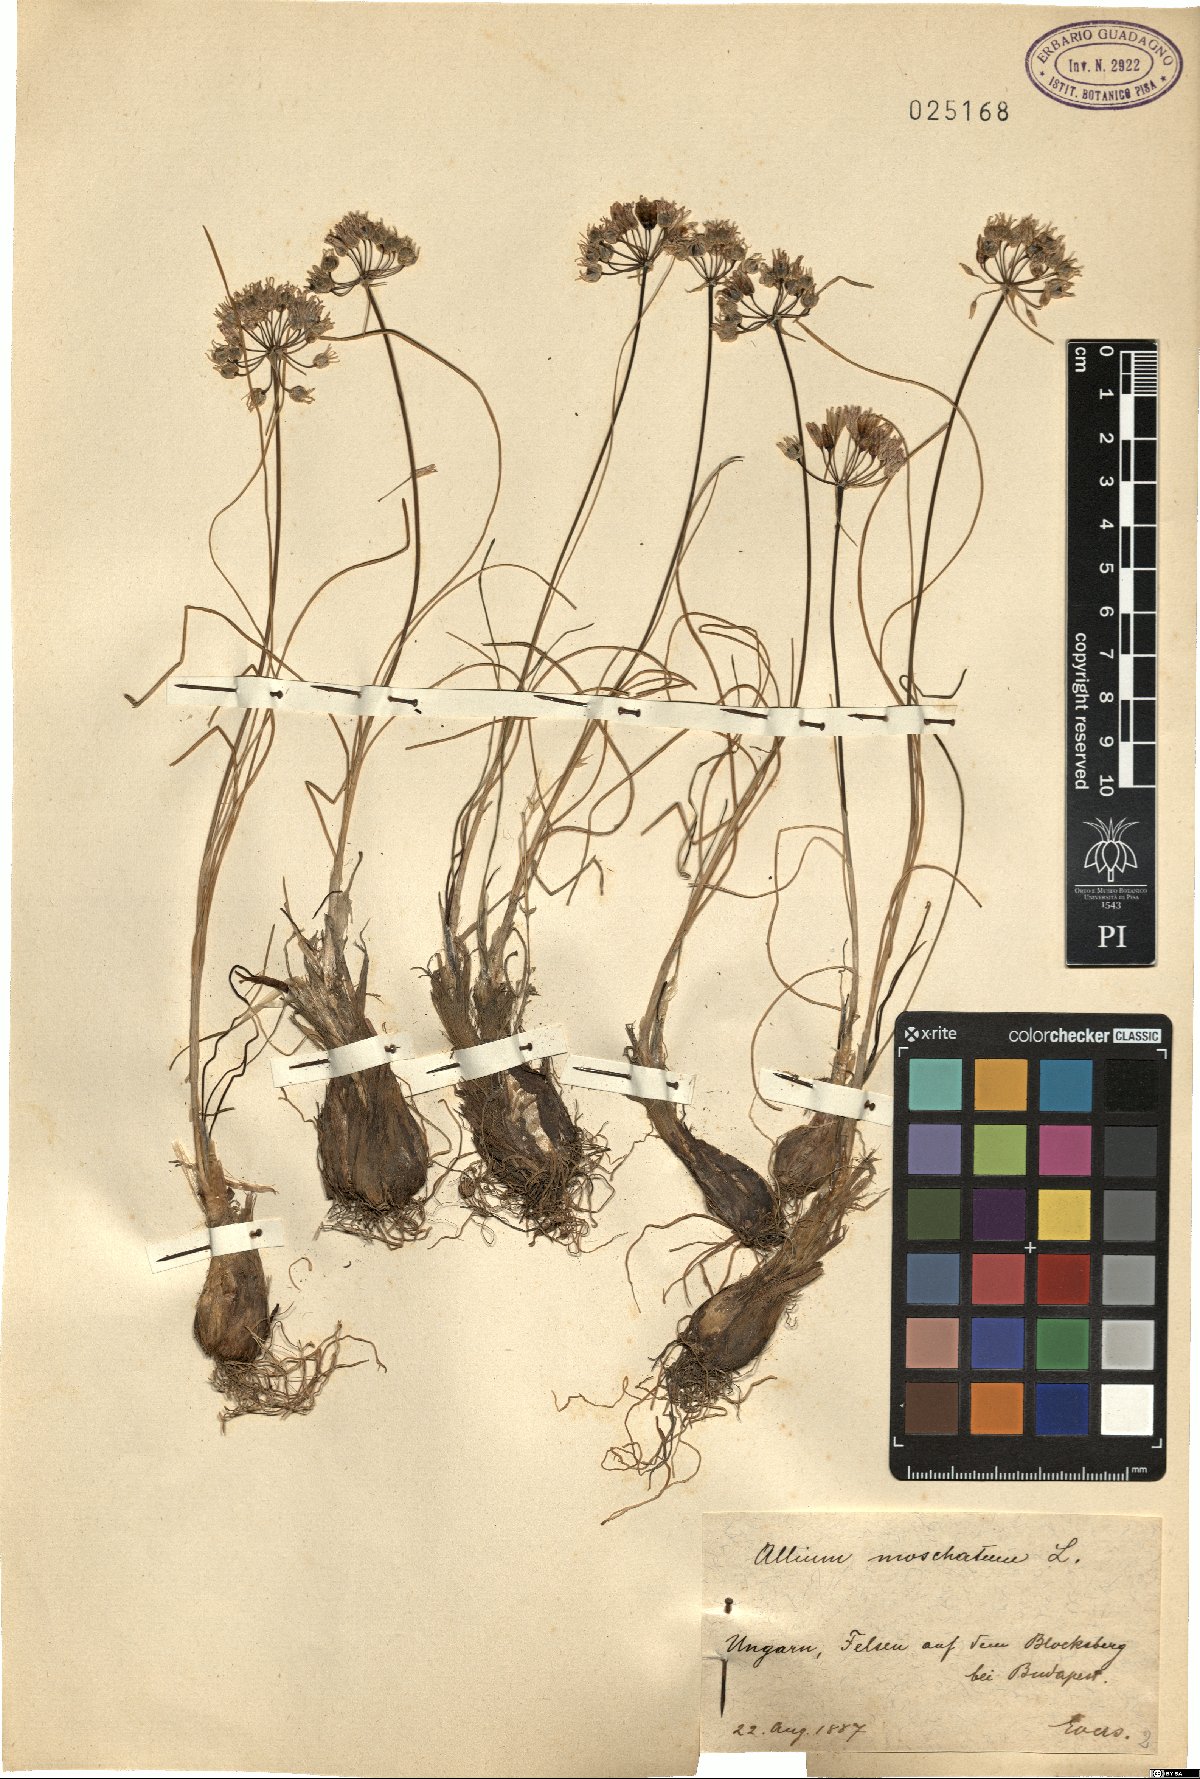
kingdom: Plantae
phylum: Tracheophyta
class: Liliopsida
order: Asparagales
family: Amaryllidaceae
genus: Allium
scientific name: Allium moschatum
